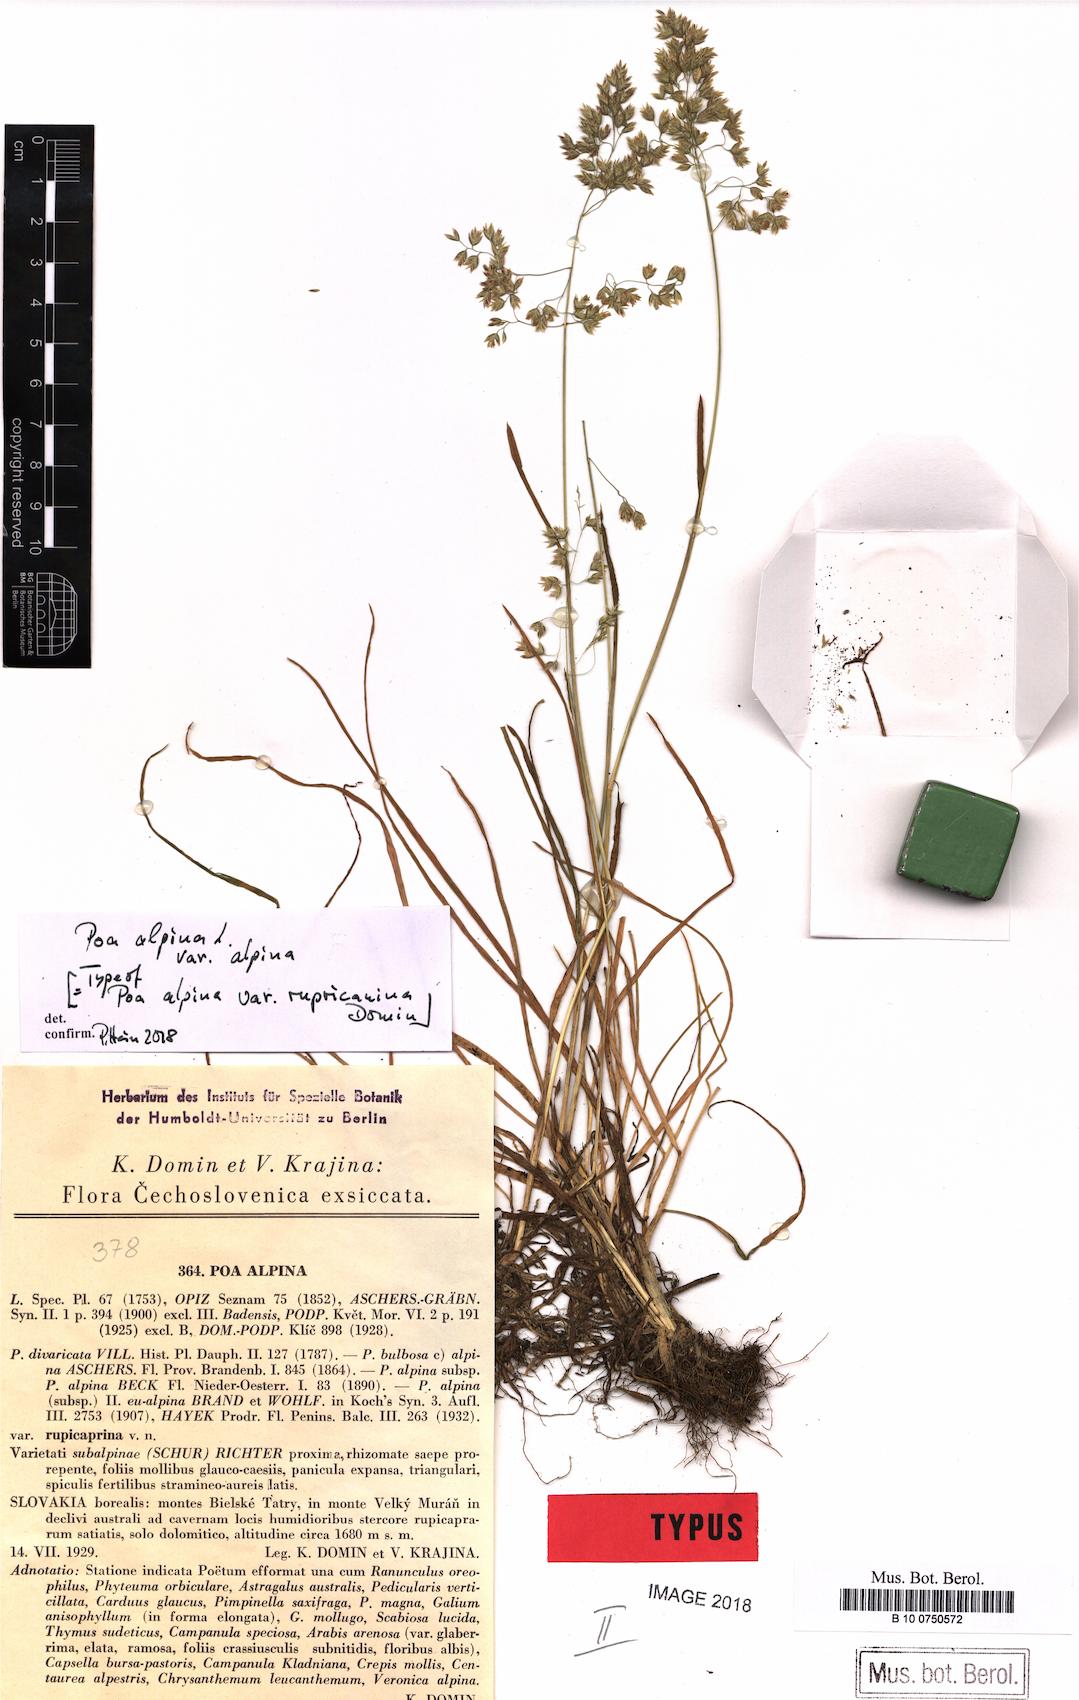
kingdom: Plantae
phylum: Tracheophyta
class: Liliopsida
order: Poales
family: Poaceae
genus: Poa
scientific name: Poa alpina
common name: Alpine bluegrass
